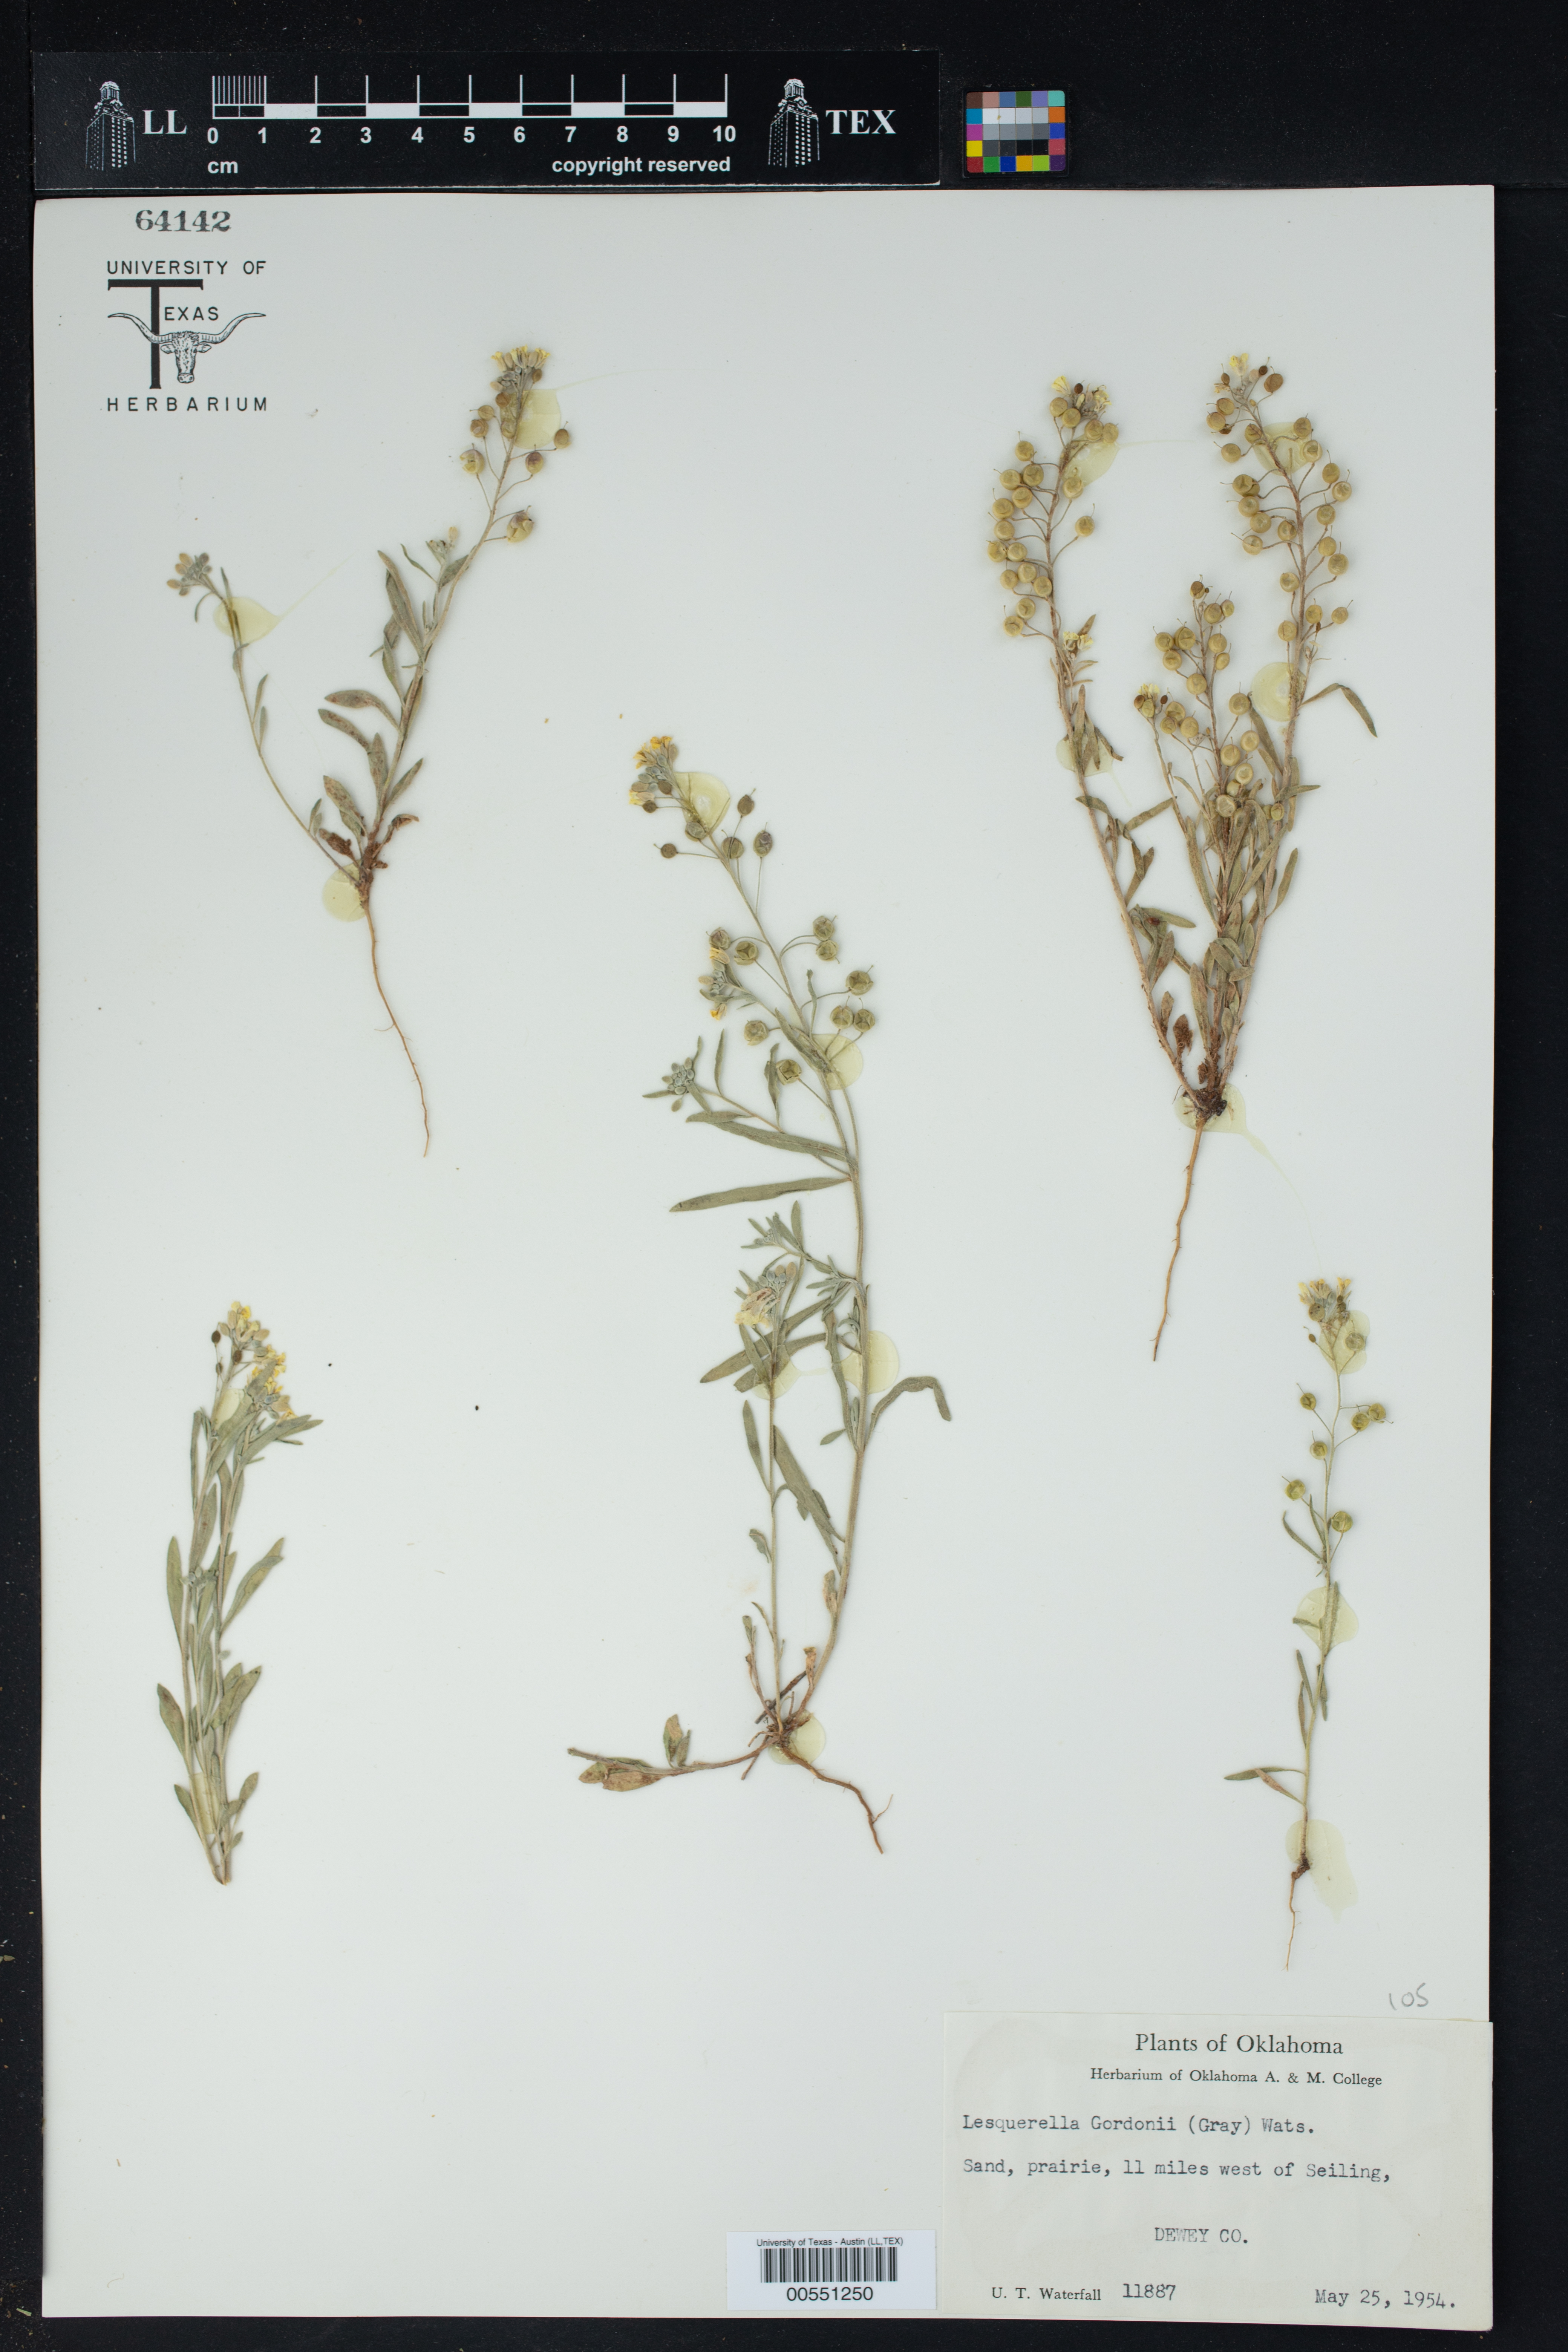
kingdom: Plantae
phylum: Tracheophyta
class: Magnoliopsida
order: Brassicales
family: Brassicaceae
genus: Physaria
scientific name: Physaria gordonii
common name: Gordon's bladderpod
